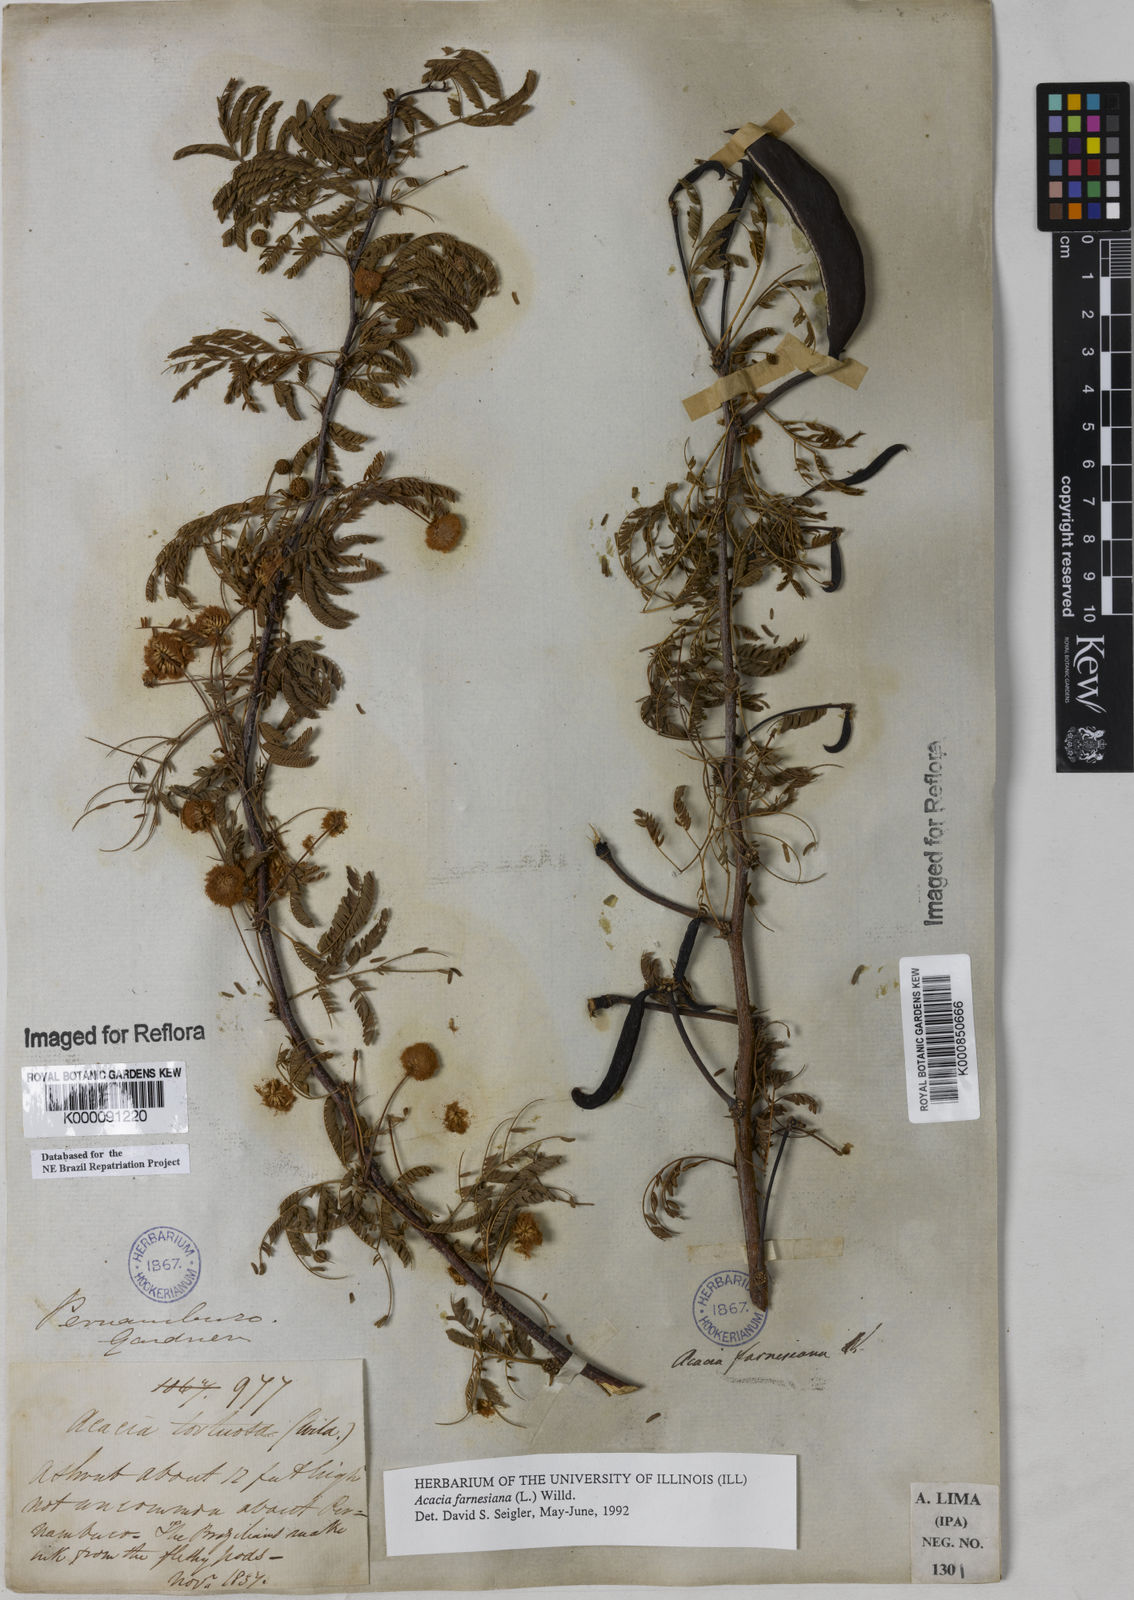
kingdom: Plantae
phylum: Tracheophyta
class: Magnoliopsida
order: Fabales
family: Fabaceae
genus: Vachellia
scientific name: Vachellia farnesiana
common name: Sweet acacia
